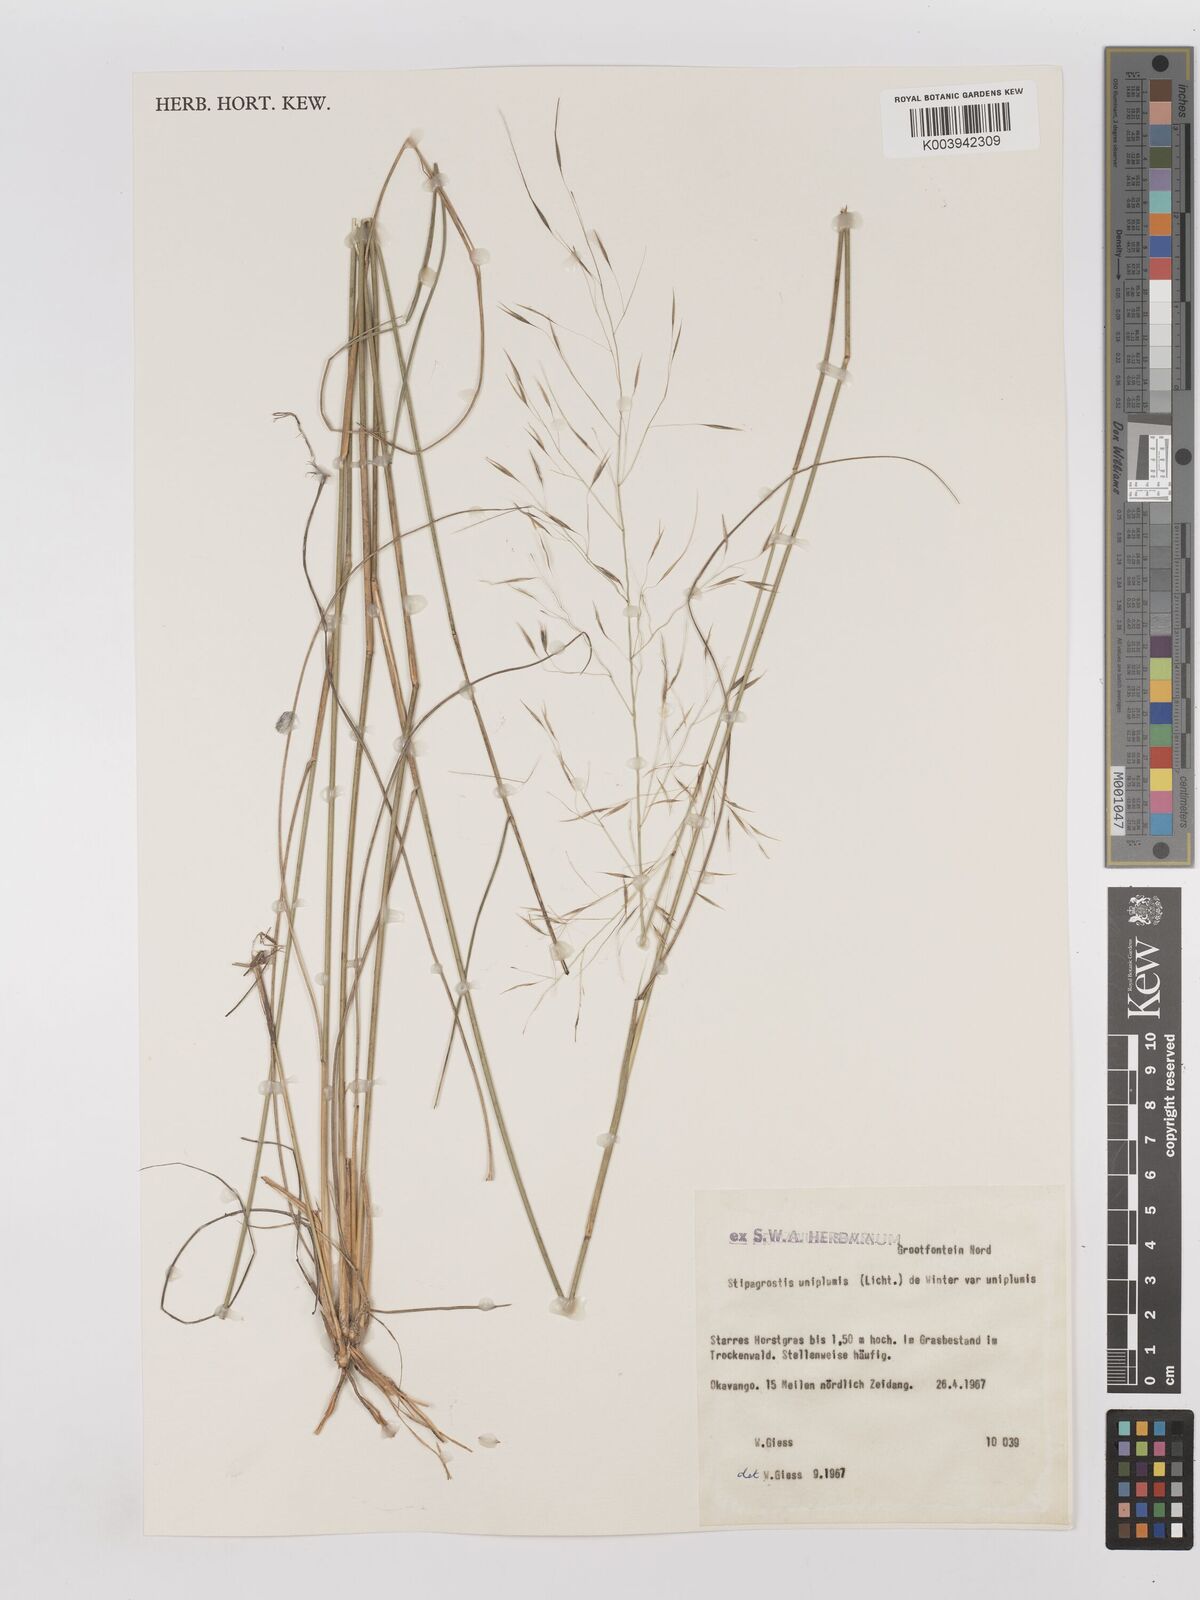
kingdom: Plantae
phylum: Tracheophyta
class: Liliopsida
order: Poales
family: Poaceae
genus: Stipagrostis
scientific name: Stipagrostis uniplumis
